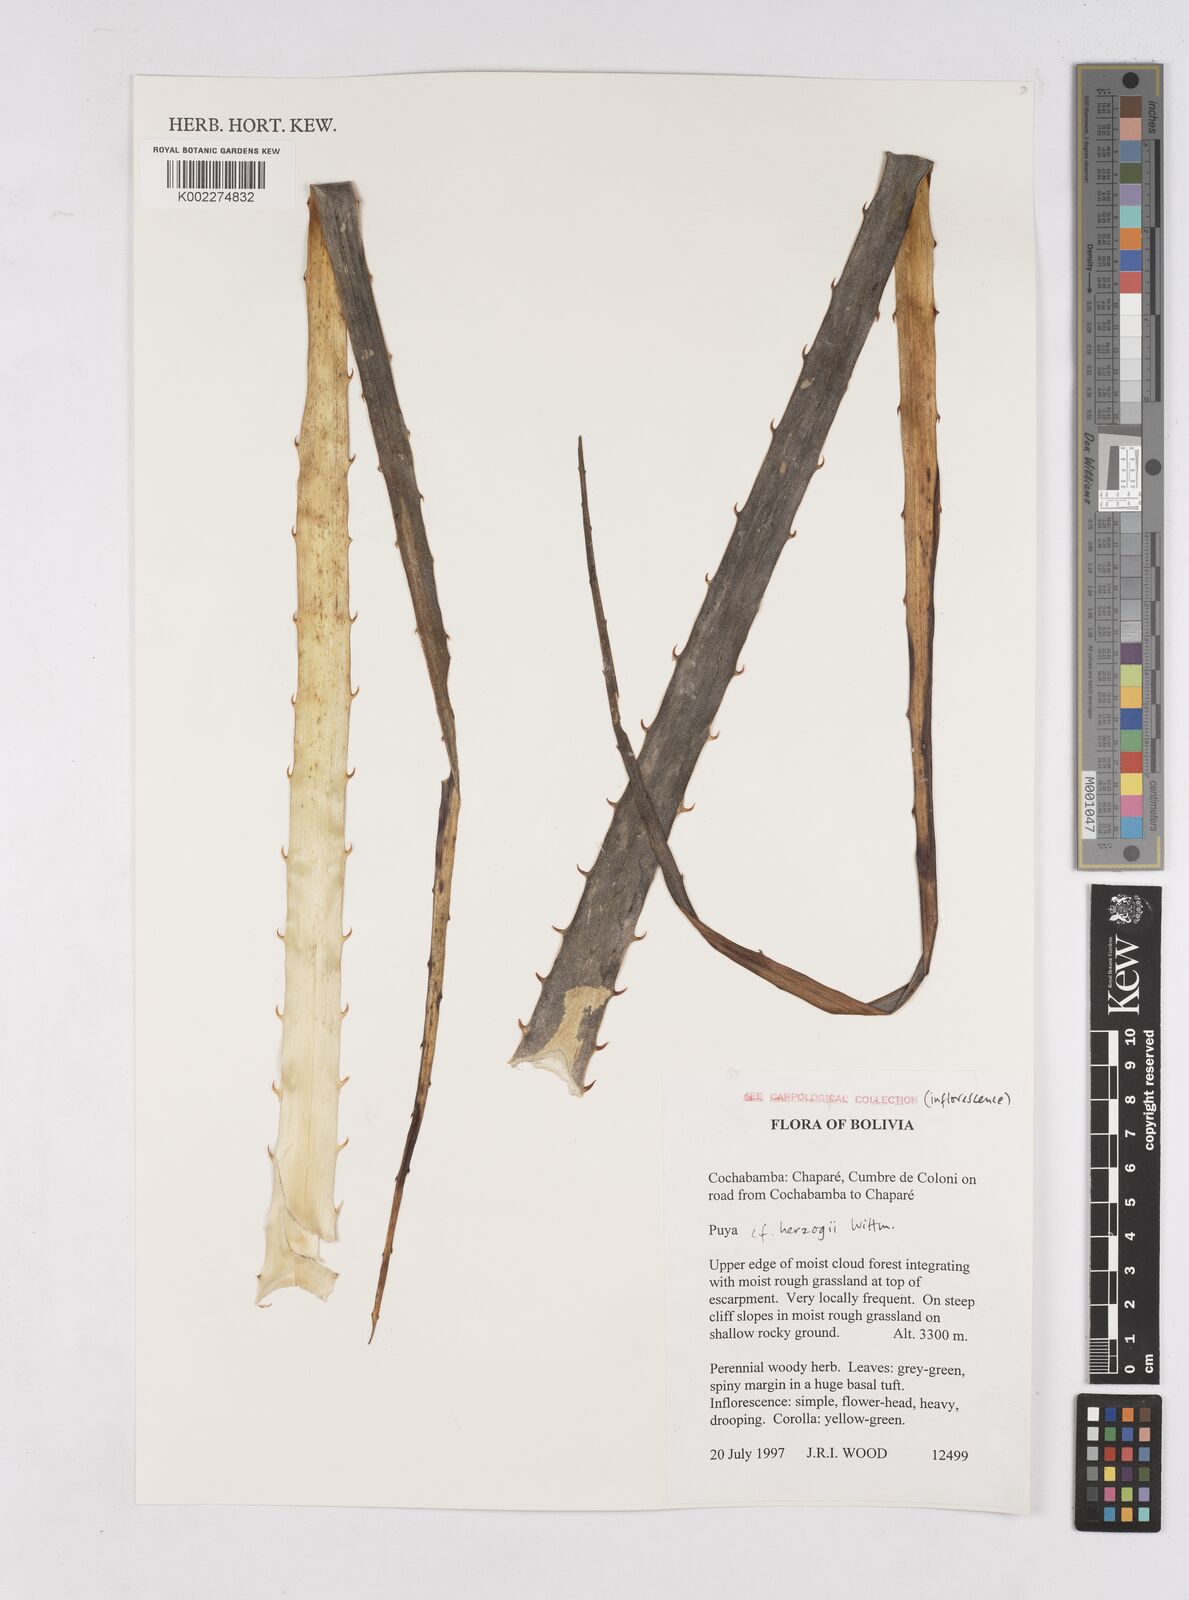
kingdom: Plantae
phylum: Tracheophyta
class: Liliopsida
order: Poales
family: Bromeliaceae
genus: Puya
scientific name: Puya herzogii
